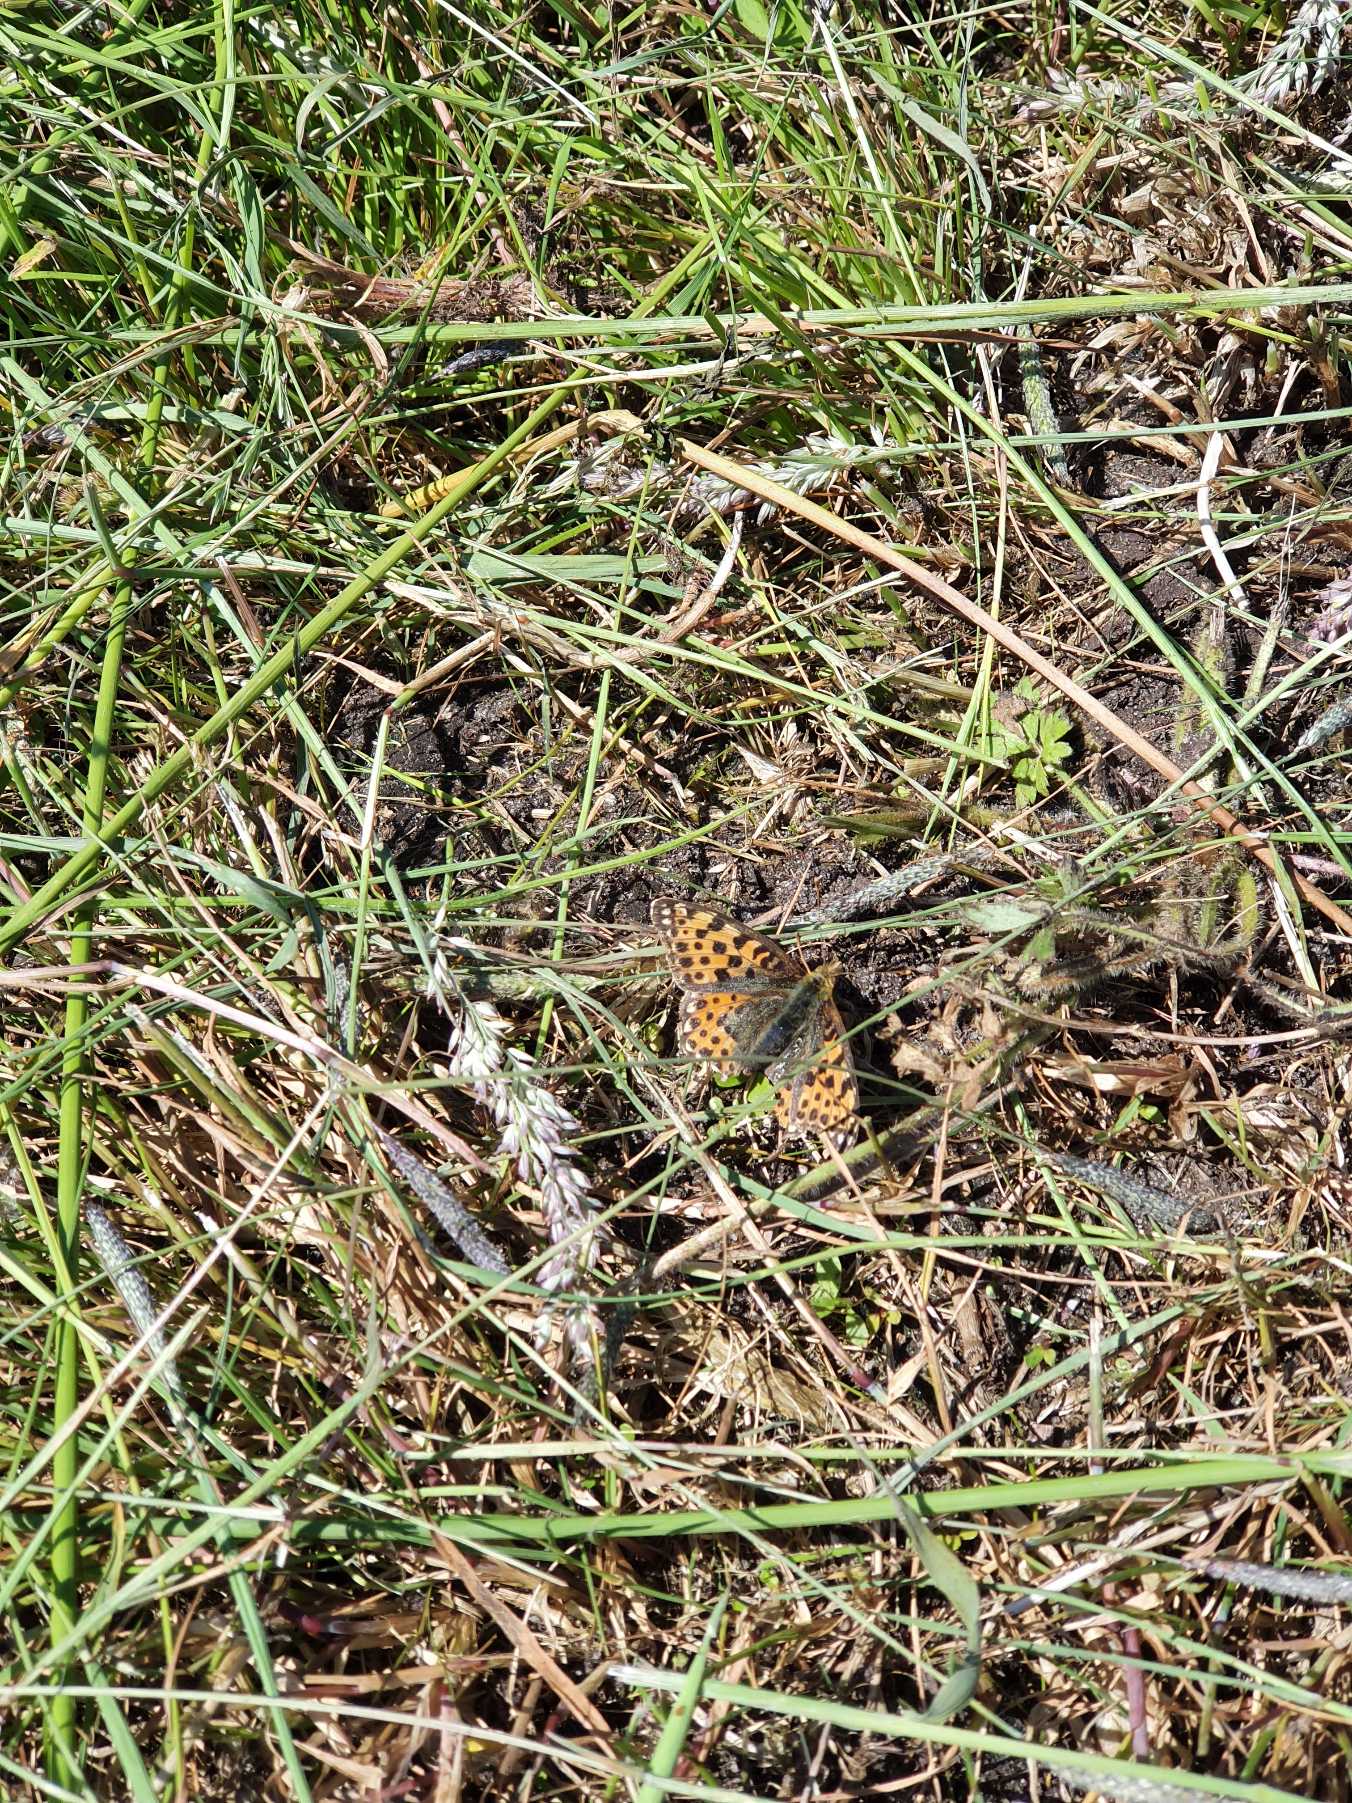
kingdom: Animalia
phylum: Arthropoda
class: Insecta
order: Lepidoptera
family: Nymphalidae
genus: Issoria
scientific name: Issoria lathonia
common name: Storplettet perlemorsommerfugl
